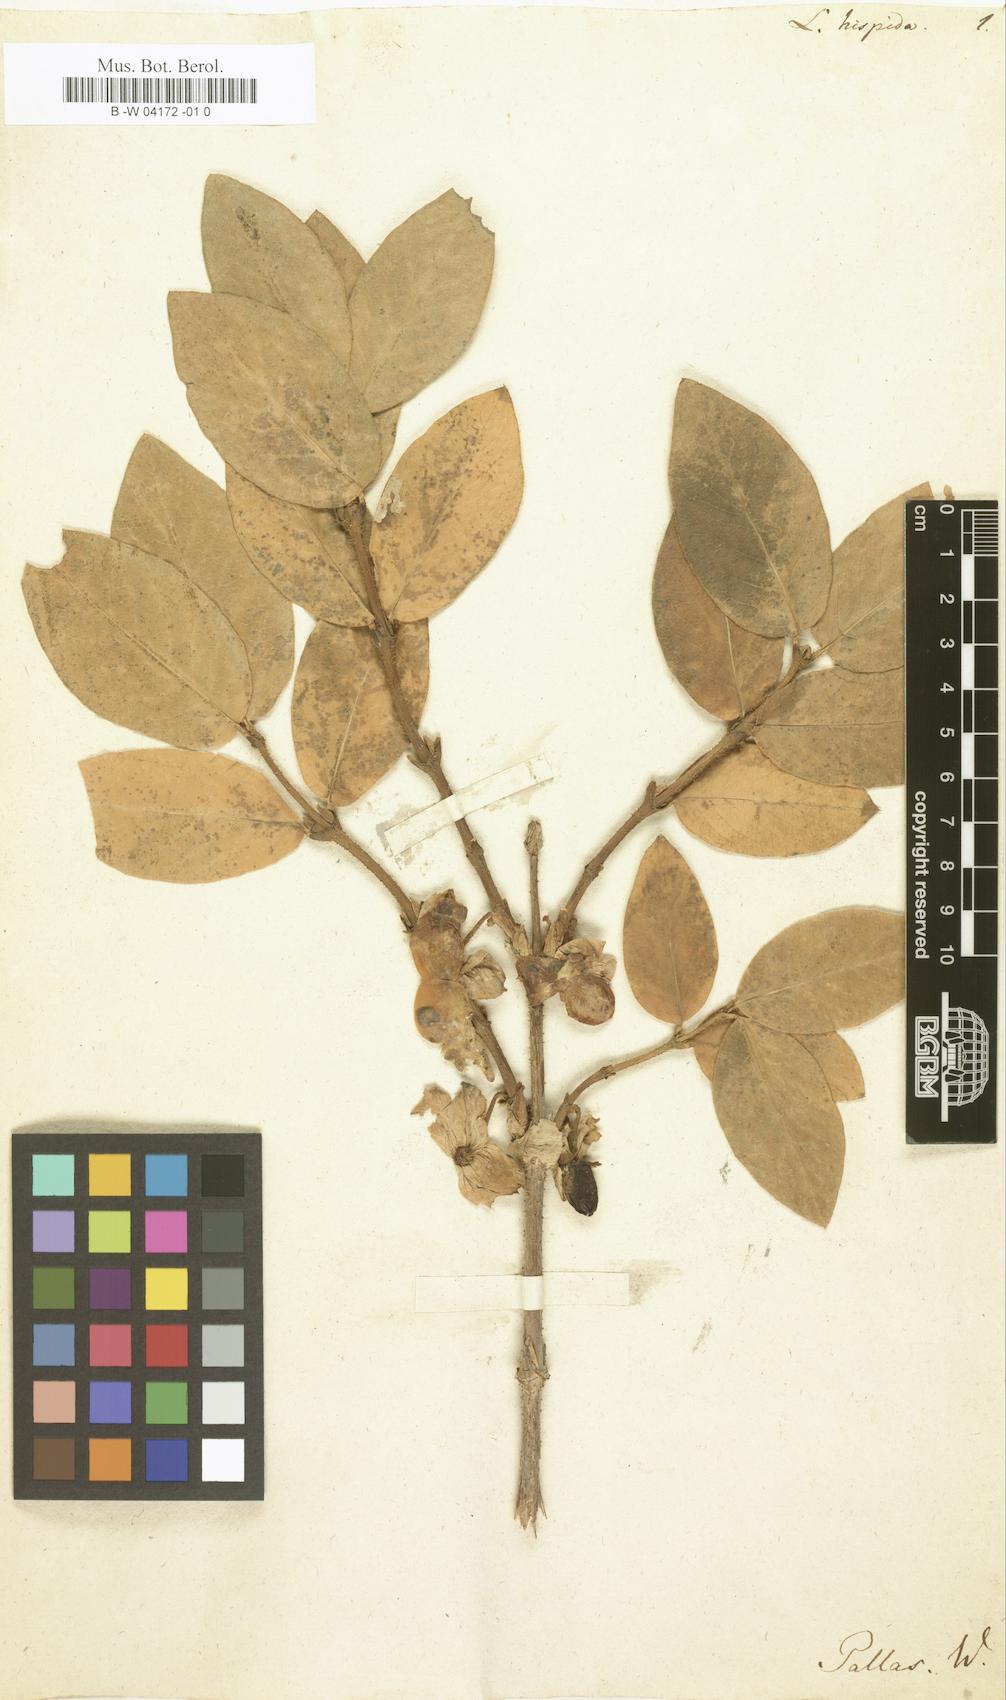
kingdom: Plantae
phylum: Tracheophyta
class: Magnoliopsida
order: Dipsacales
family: Caprifoliaceae
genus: Lonicera
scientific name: Lonicera hispida
